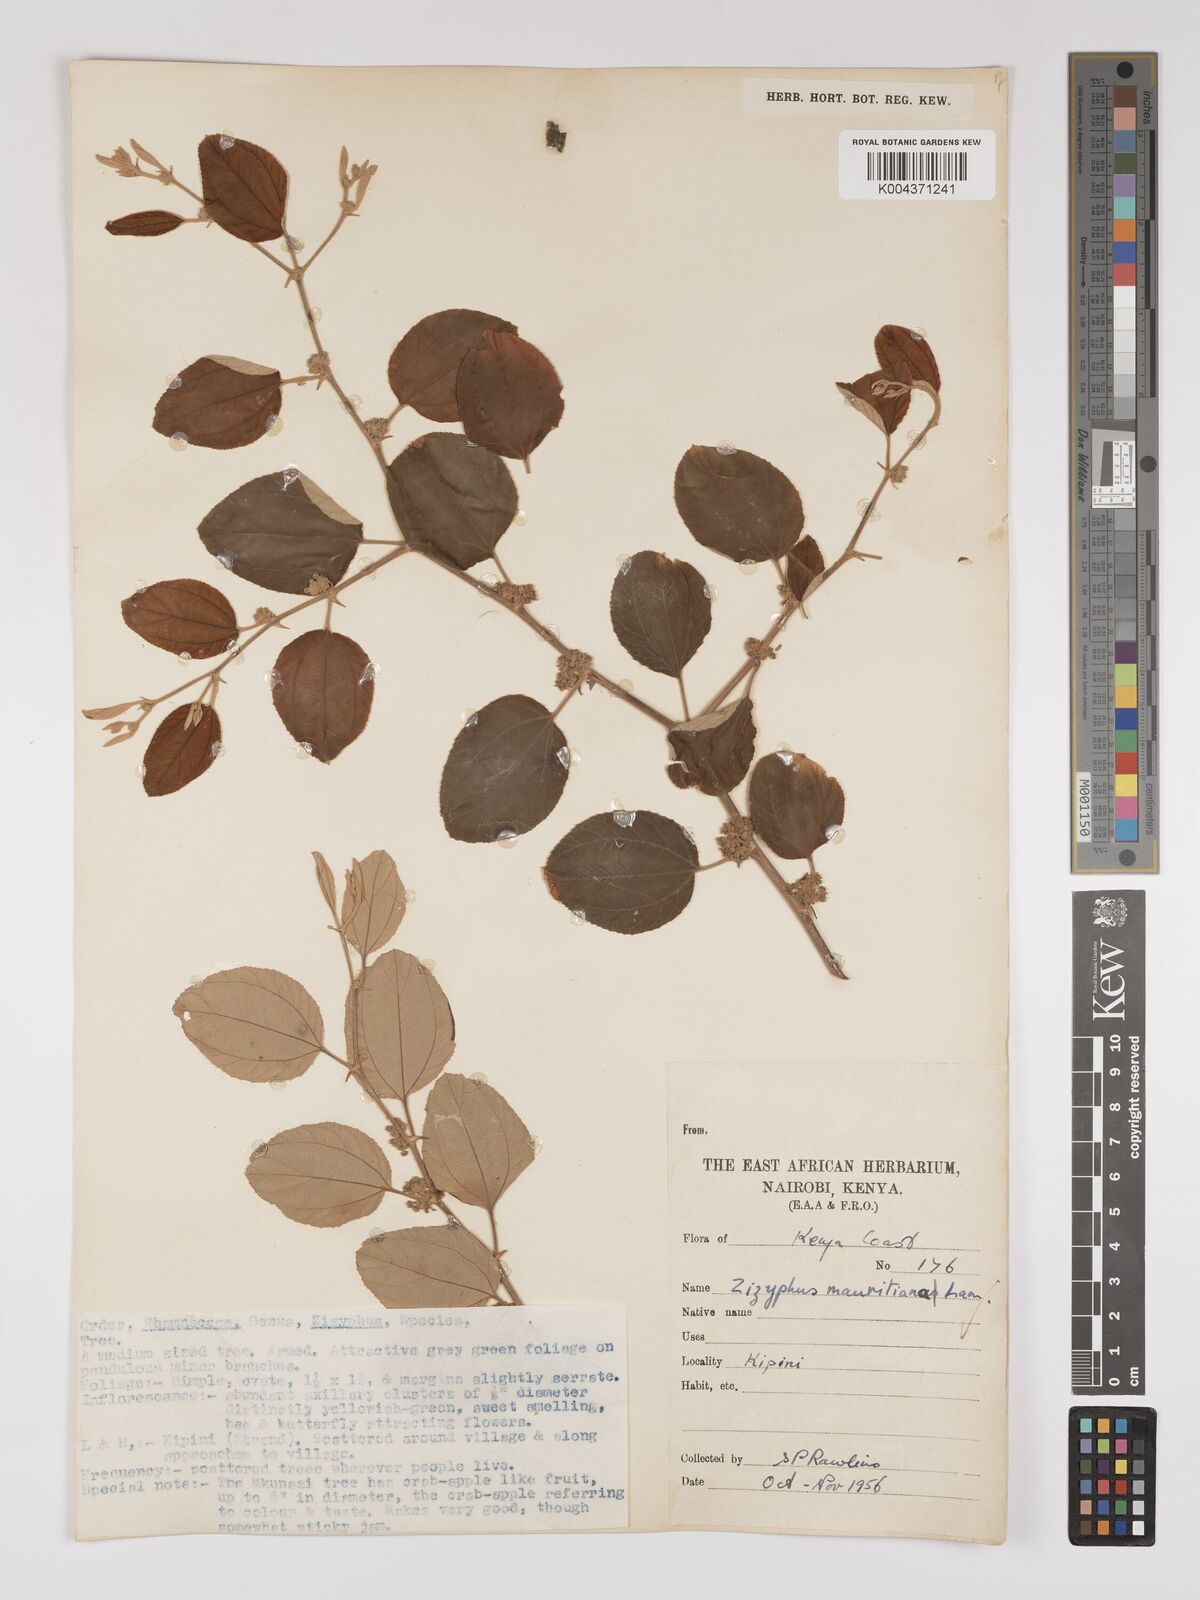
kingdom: Plantae
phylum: Tracheophyta
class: Magnoliopsida
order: Rosales
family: Rhamnaceae
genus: Ziziphus
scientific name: Ziziphus mauritiana
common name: Indian jujube
